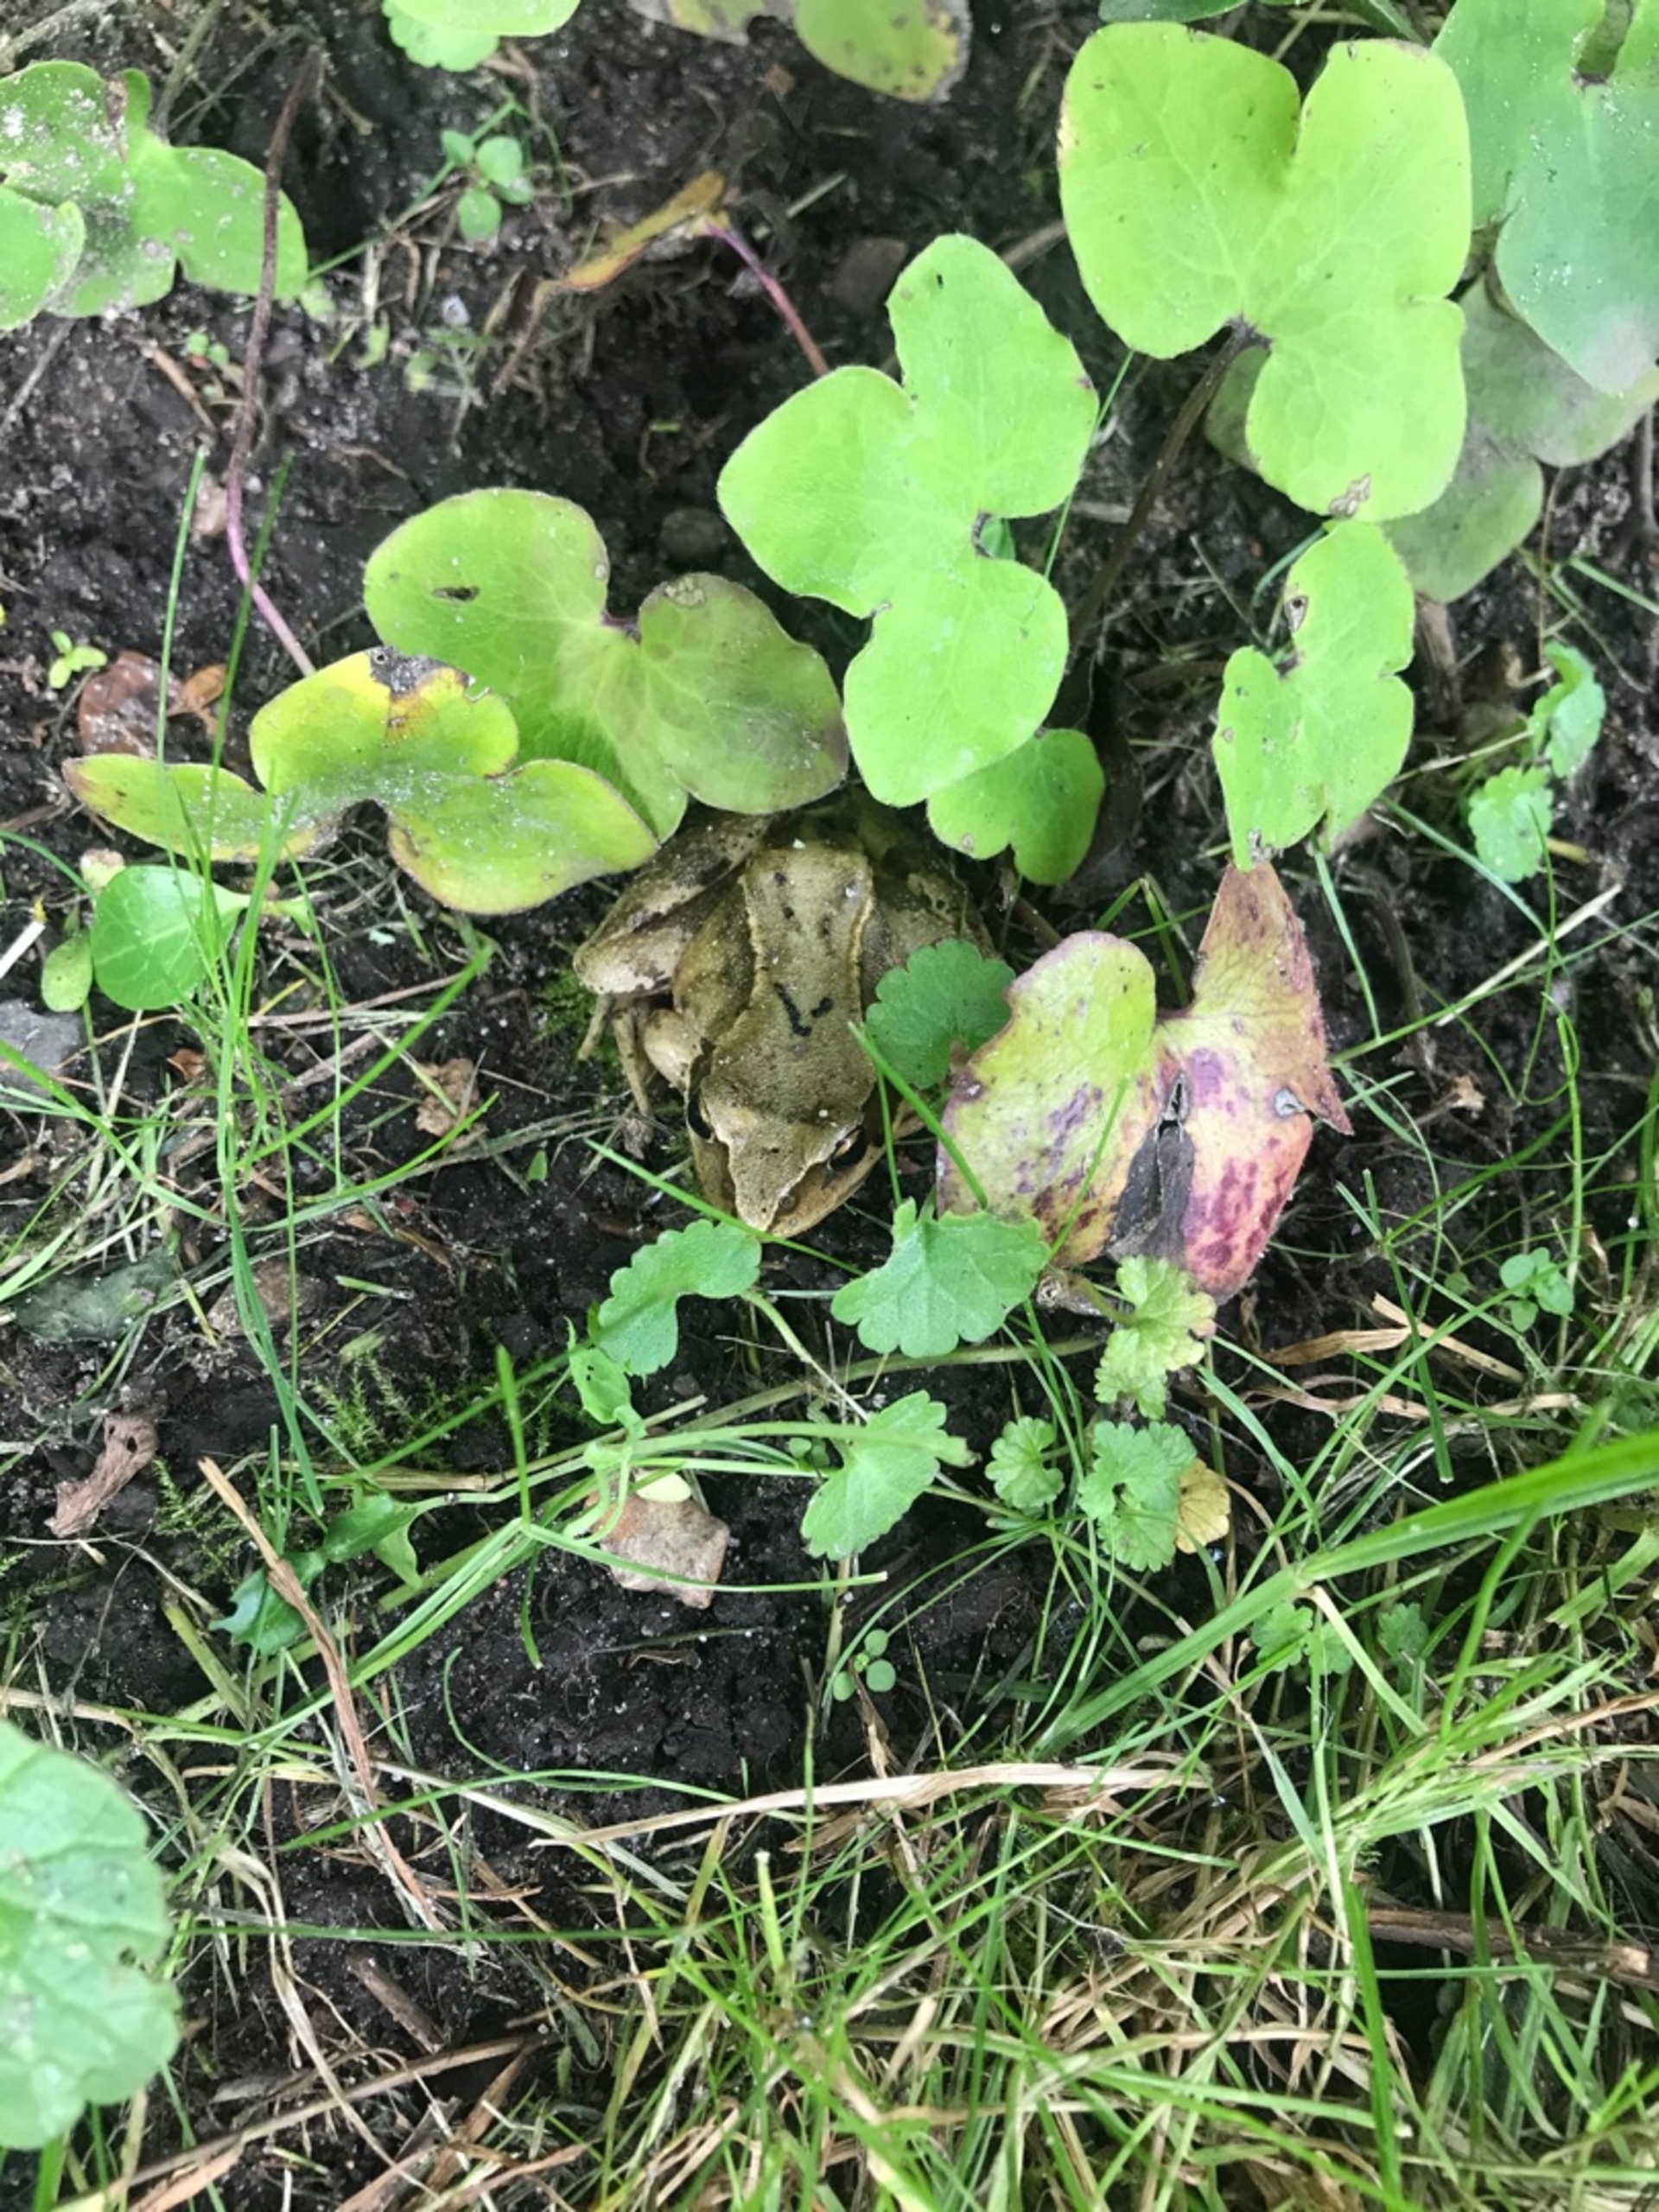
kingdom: Animalia
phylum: Chordata
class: Amphibia
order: Anura
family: Ranidae
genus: Rana
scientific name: Rana temporaria
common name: Butsnudet frø
